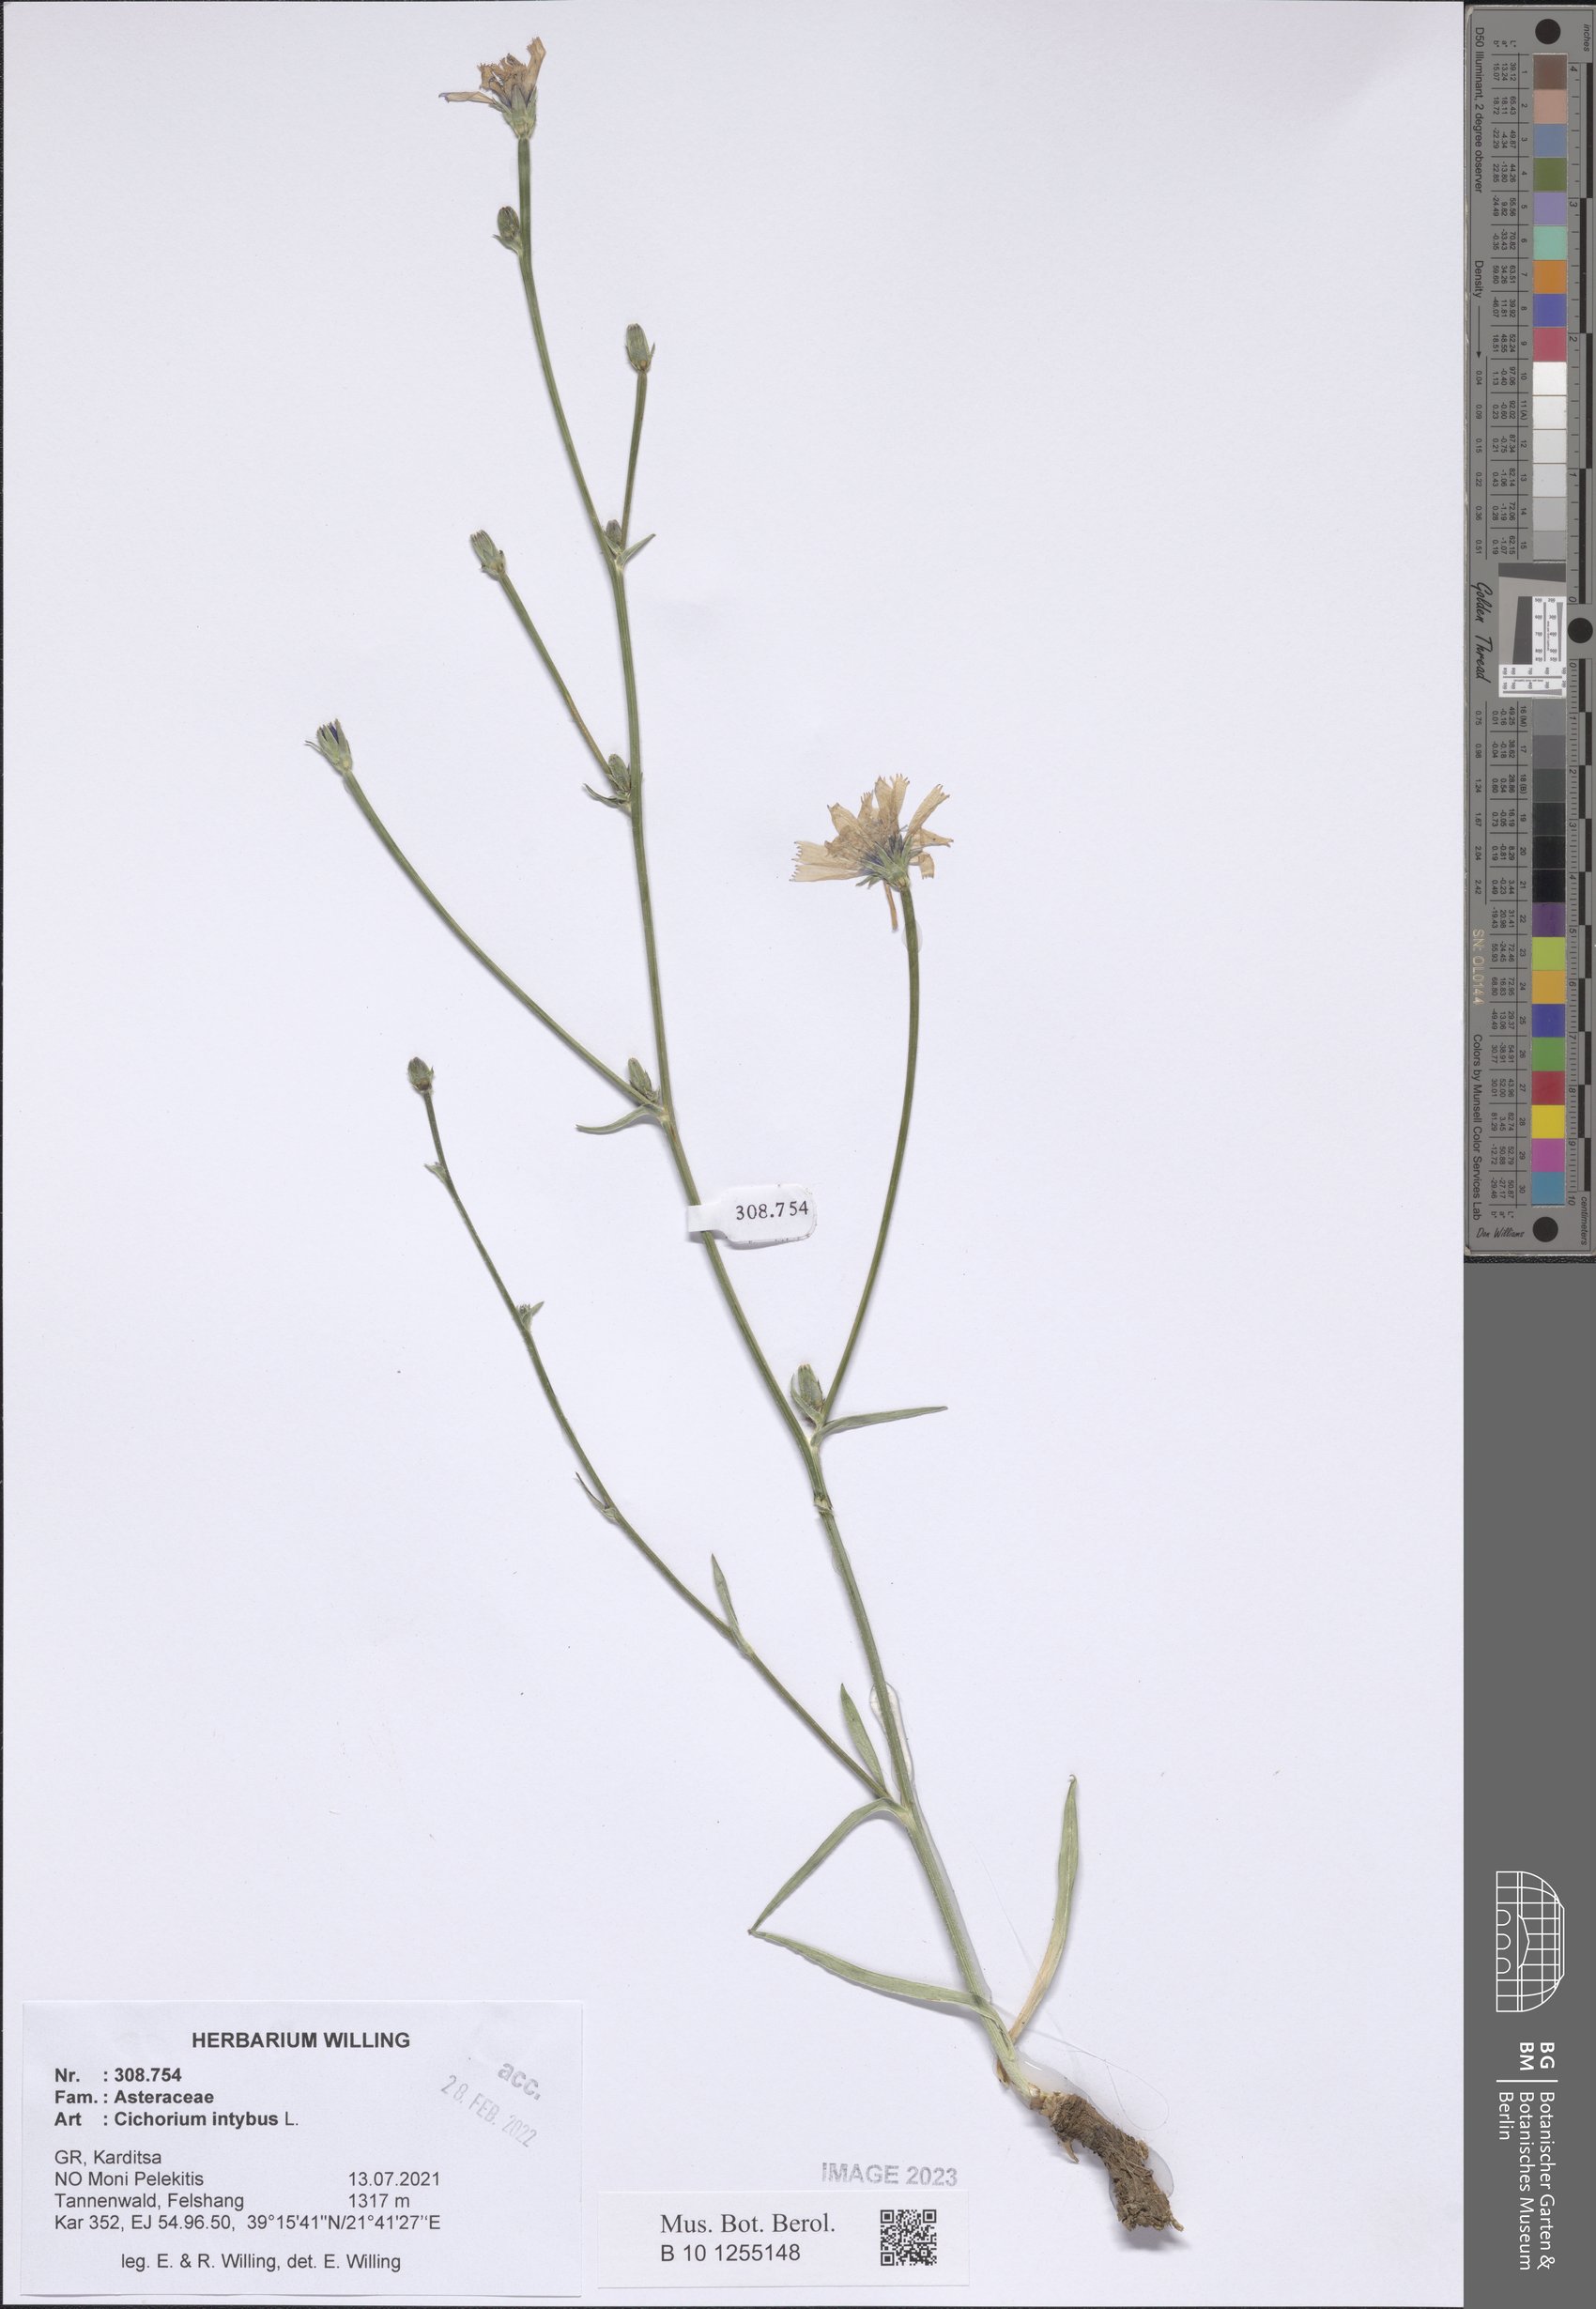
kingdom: Plantae
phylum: Tracheophyta
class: Magnoliopsida
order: Asterales
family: Asteraceae
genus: Cichorium
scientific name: Cichorium intybus
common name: Chicory
